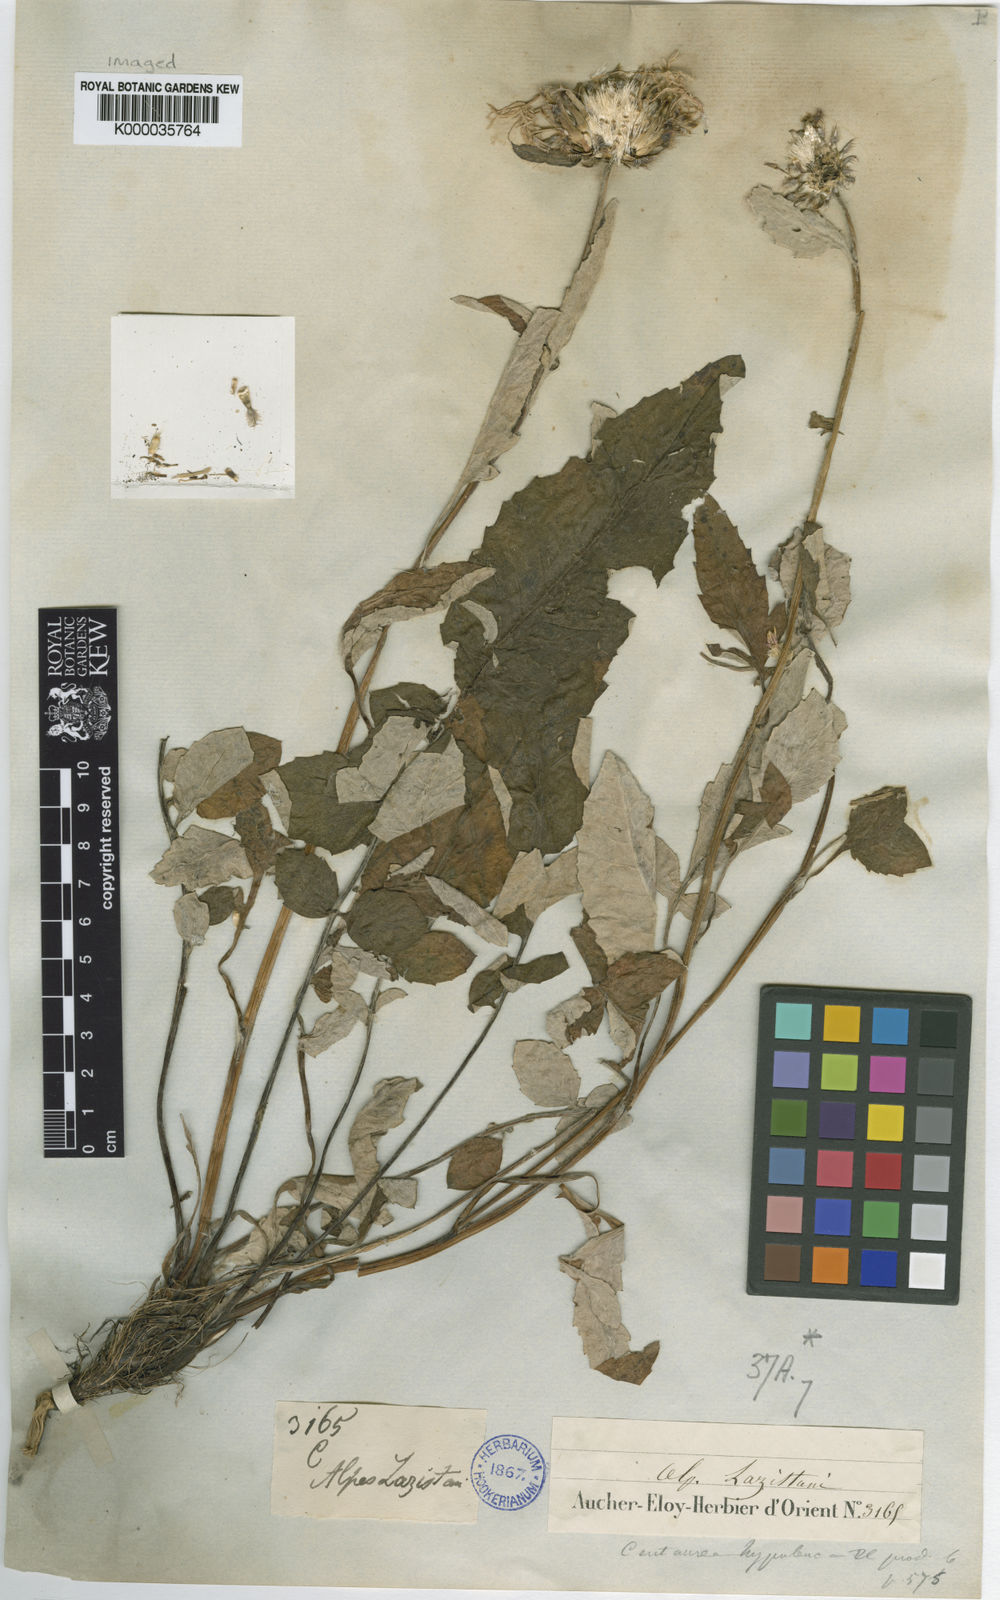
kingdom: Plantae
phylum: Tracheophyta
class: Magnoliopsida
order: Asterales
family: Asteraceae
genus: Psephellus
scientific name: Psephellus hypoleucus
